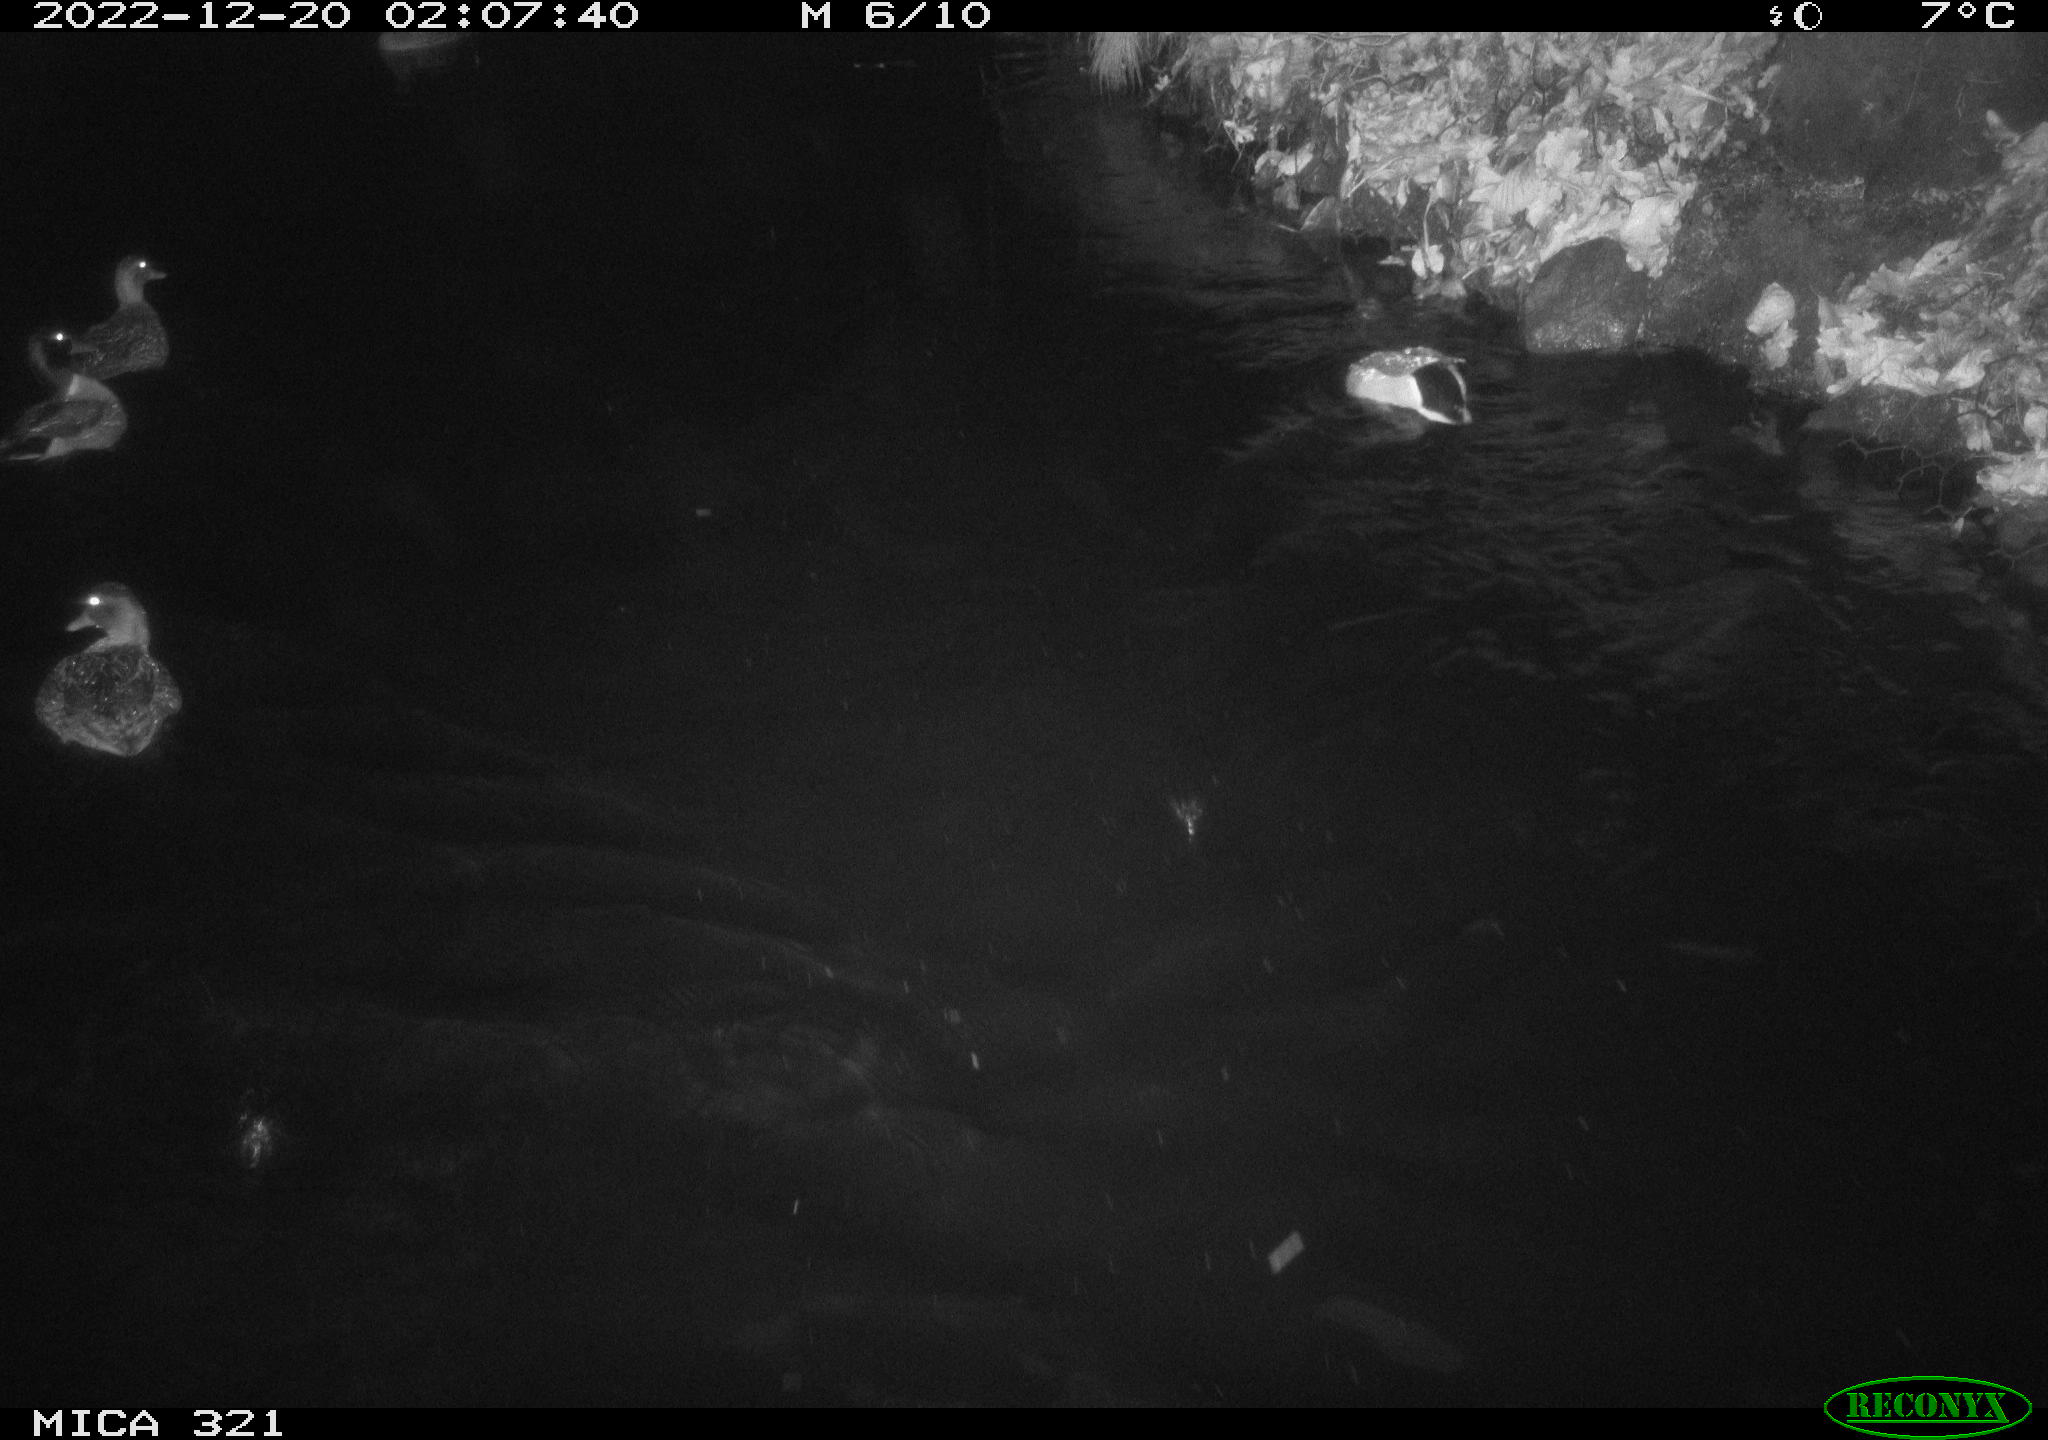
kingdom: Animalia
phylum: Chordata
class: Aves
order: Anseriformes
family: Anatidae
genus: Anas
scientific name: Anas
